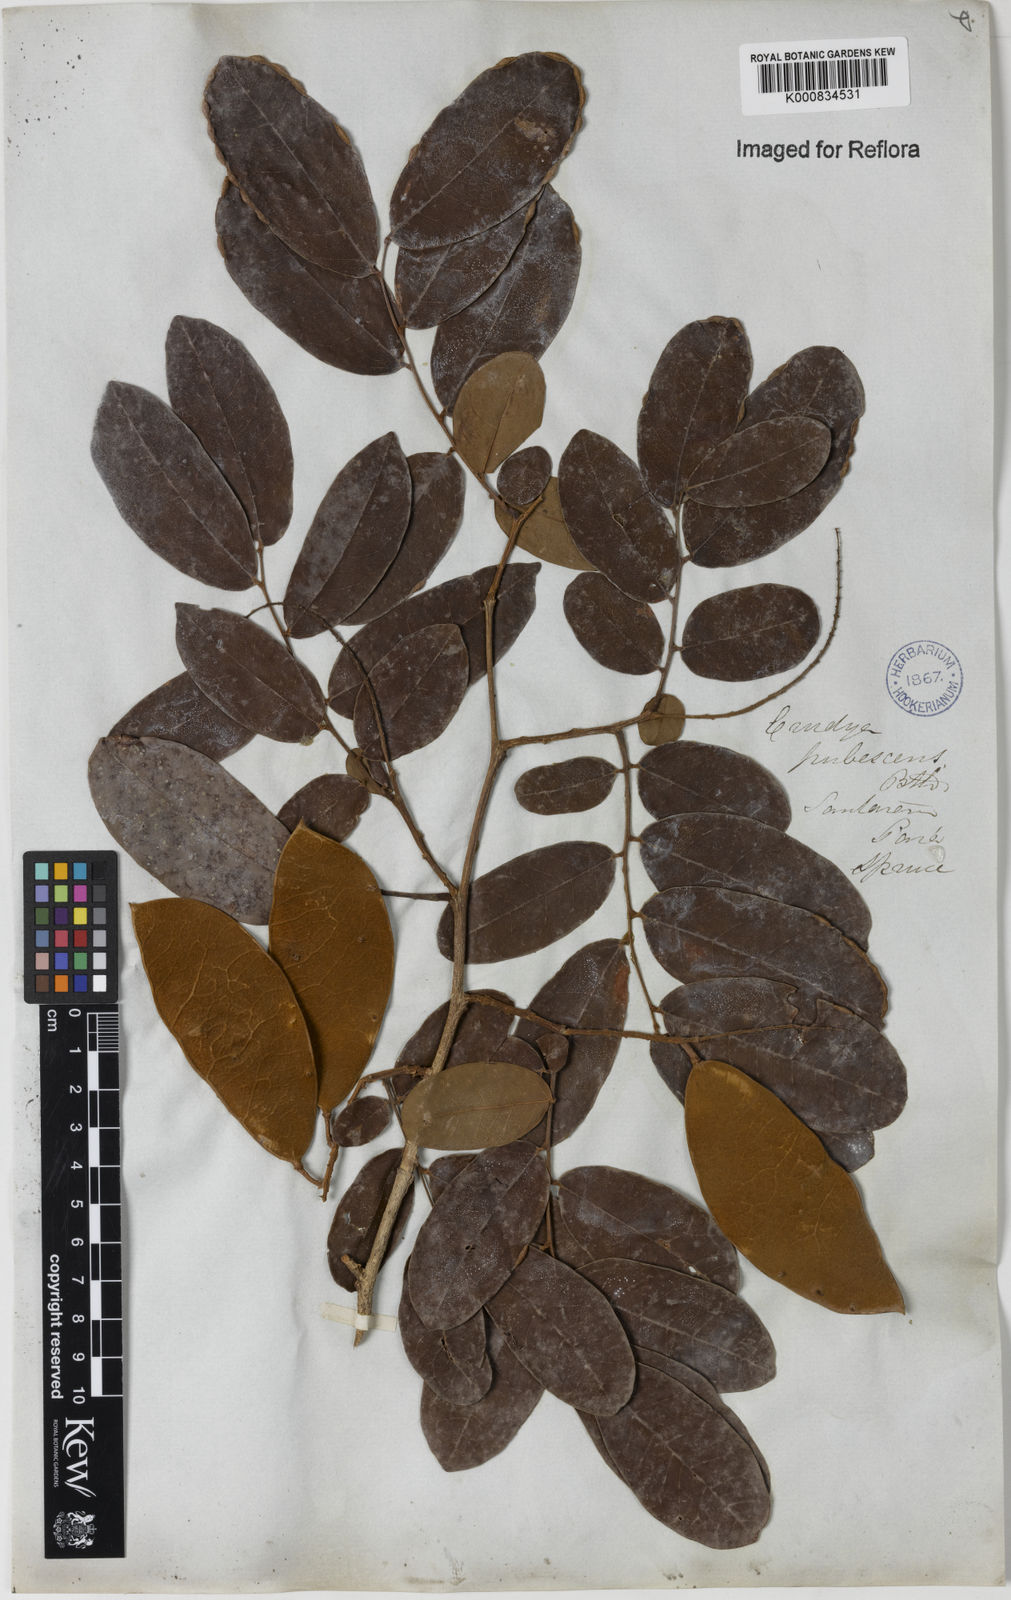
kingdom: Plantae
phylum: Tracheophyta
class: Magnoliopsida
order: Fabales
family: Fabaceae
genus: Crudia
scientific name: Crudia glaberrima
